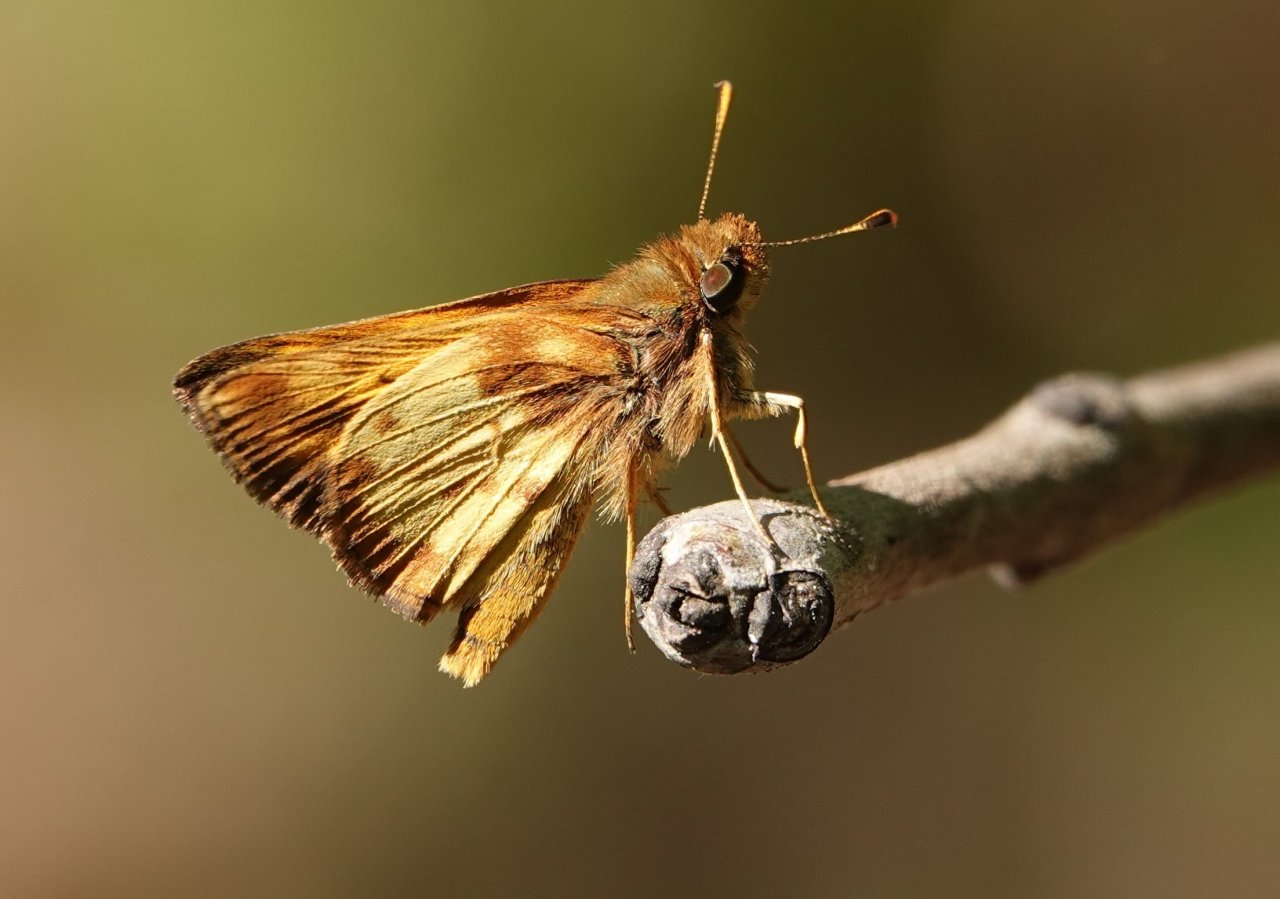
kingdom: Animalia
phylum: Arthropoda
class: Insecta
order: Lepidoptera
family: Hesperiidae
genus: Lon
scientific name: Lon zabulon
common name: Zabulon Skipper
